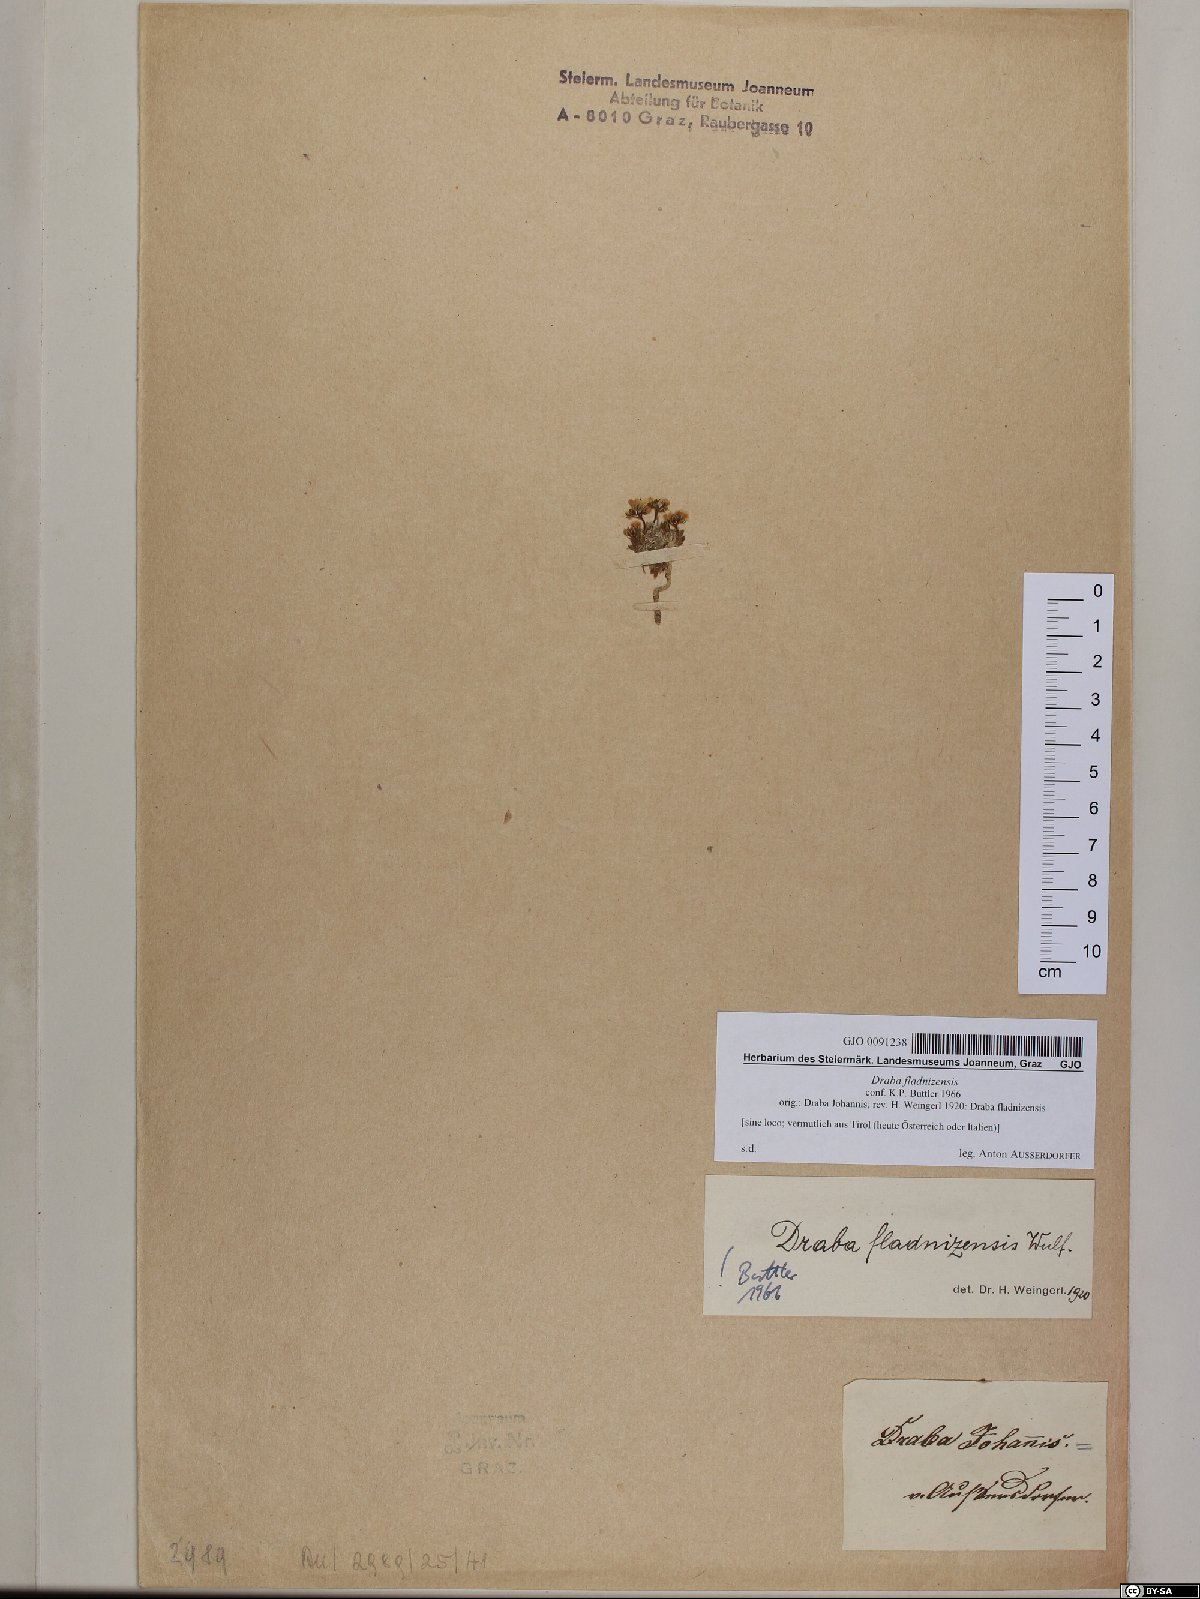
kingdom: Plantae
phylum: Tracheophyta
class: Magnoliopsida
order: Brassicales
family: Brassicaceae
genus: Draba
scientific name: Draba fladnizensis
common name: Austrian draba
